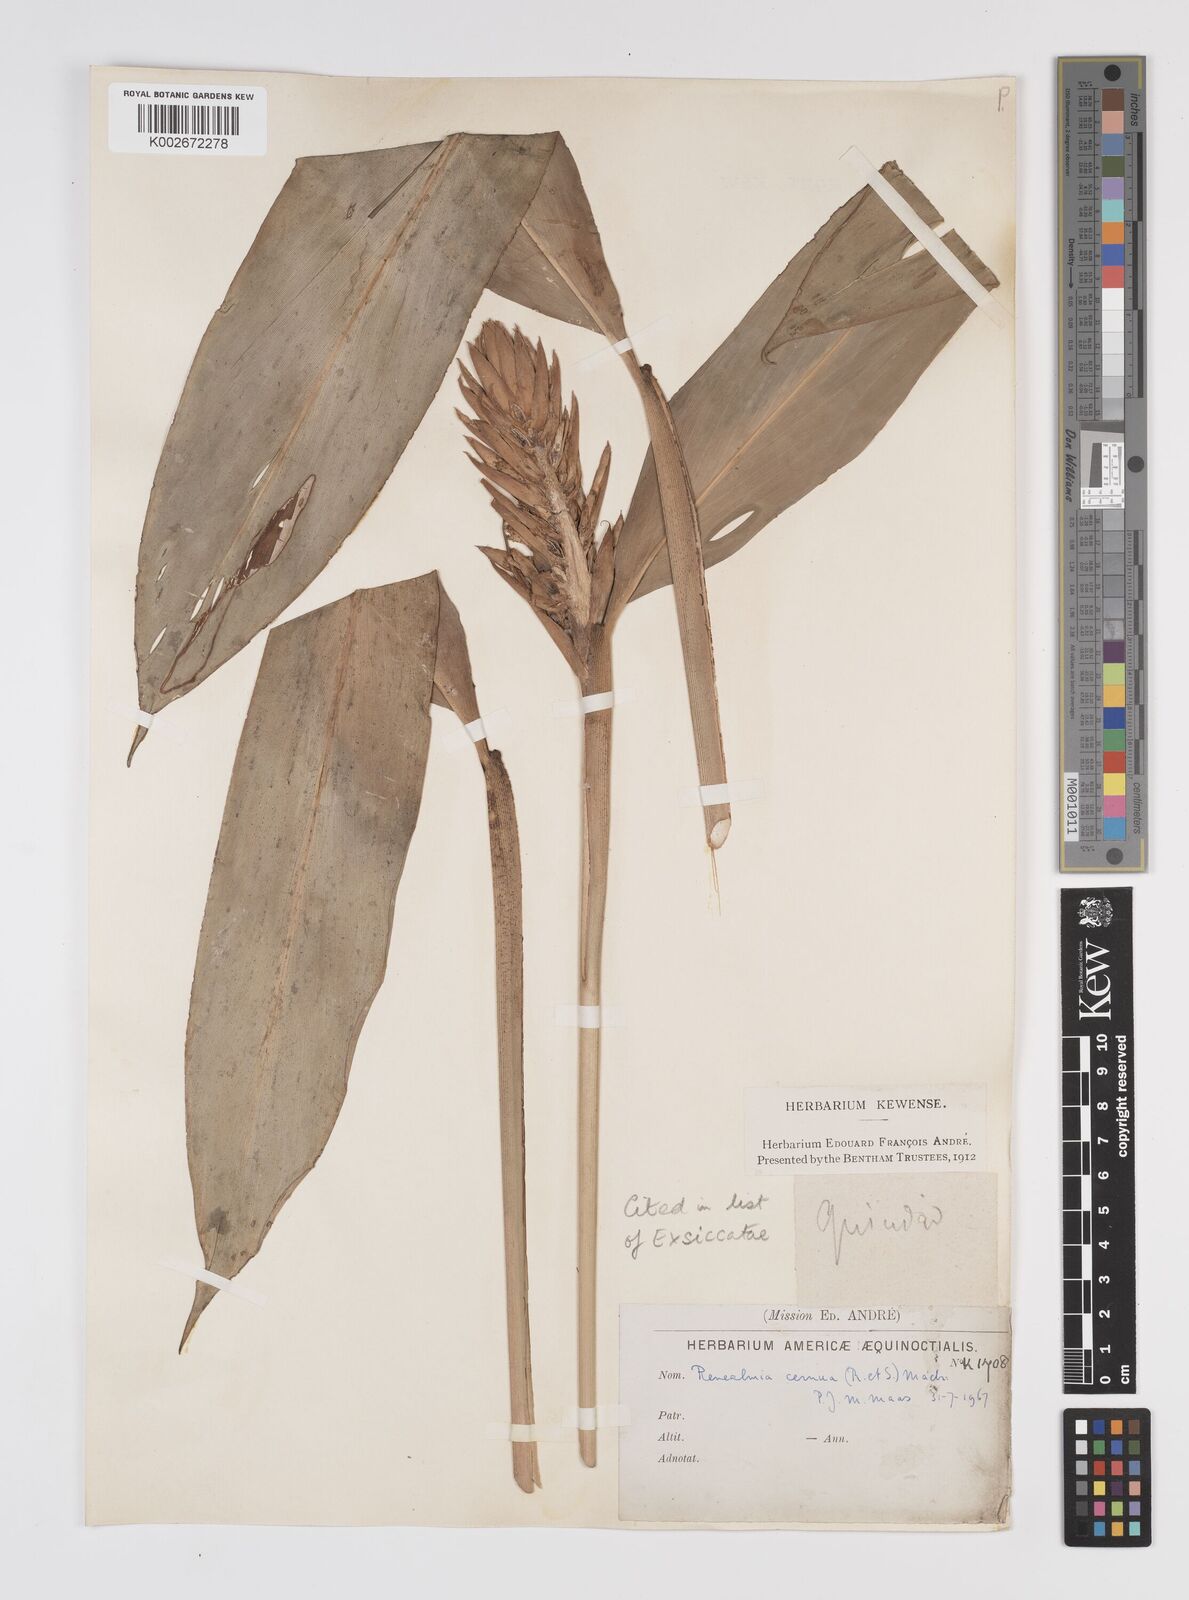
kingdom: Plantae
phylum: Tracheophyta
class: Liliopsida
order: Zingiberales
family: Zingiberaceae
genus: Renealmia
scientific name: Renealmia cernua
